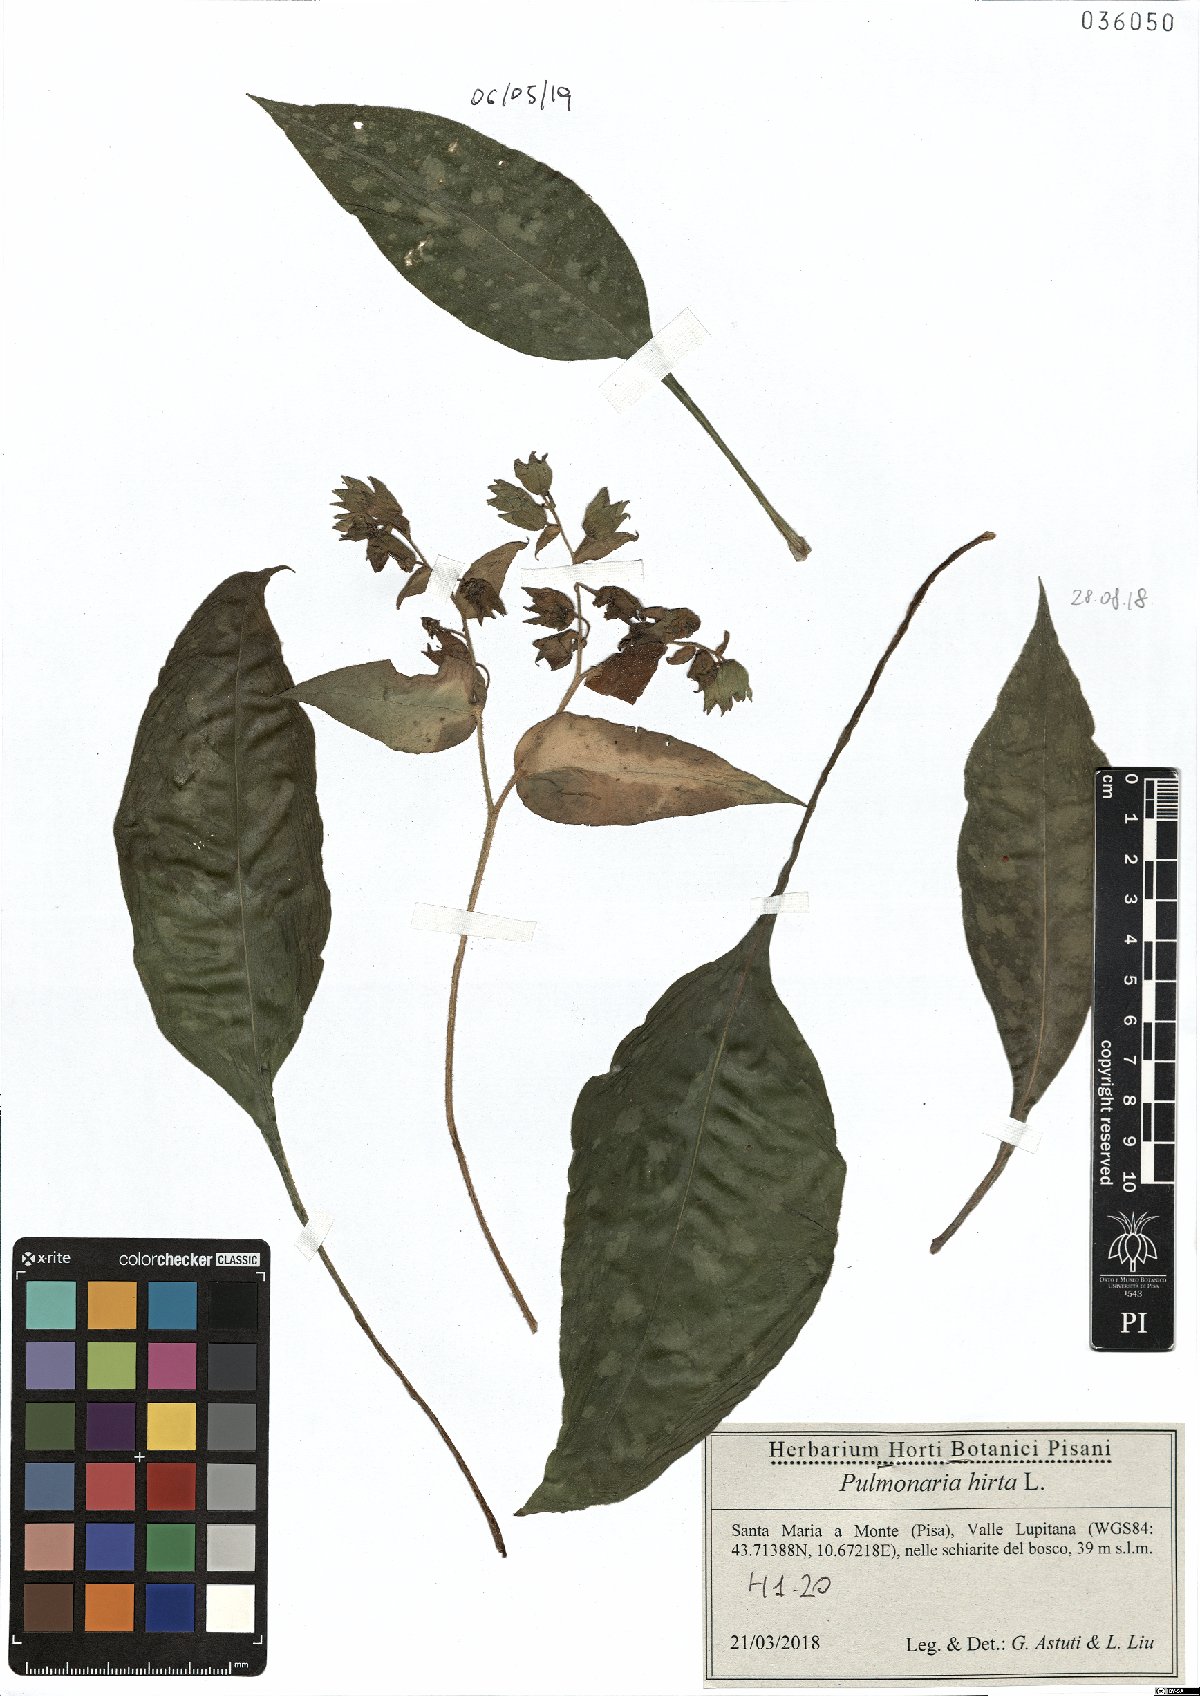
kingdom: Plantae
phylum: Tracheophyta
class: Magnoliopsida
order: Boraginales
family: Boraginaceae
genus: Pulmonaria
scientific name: Pulmonaria hirta
